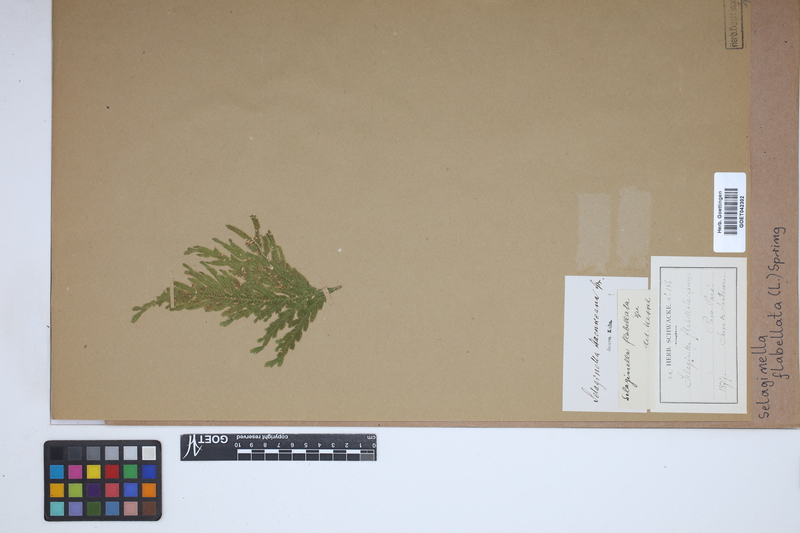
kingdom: Plantae
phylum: Tracheophyta
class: Lycopodiopsida
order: Selaginellales
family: Selaginellaceae
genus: Selaginella
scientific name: Selaginella flabellata
